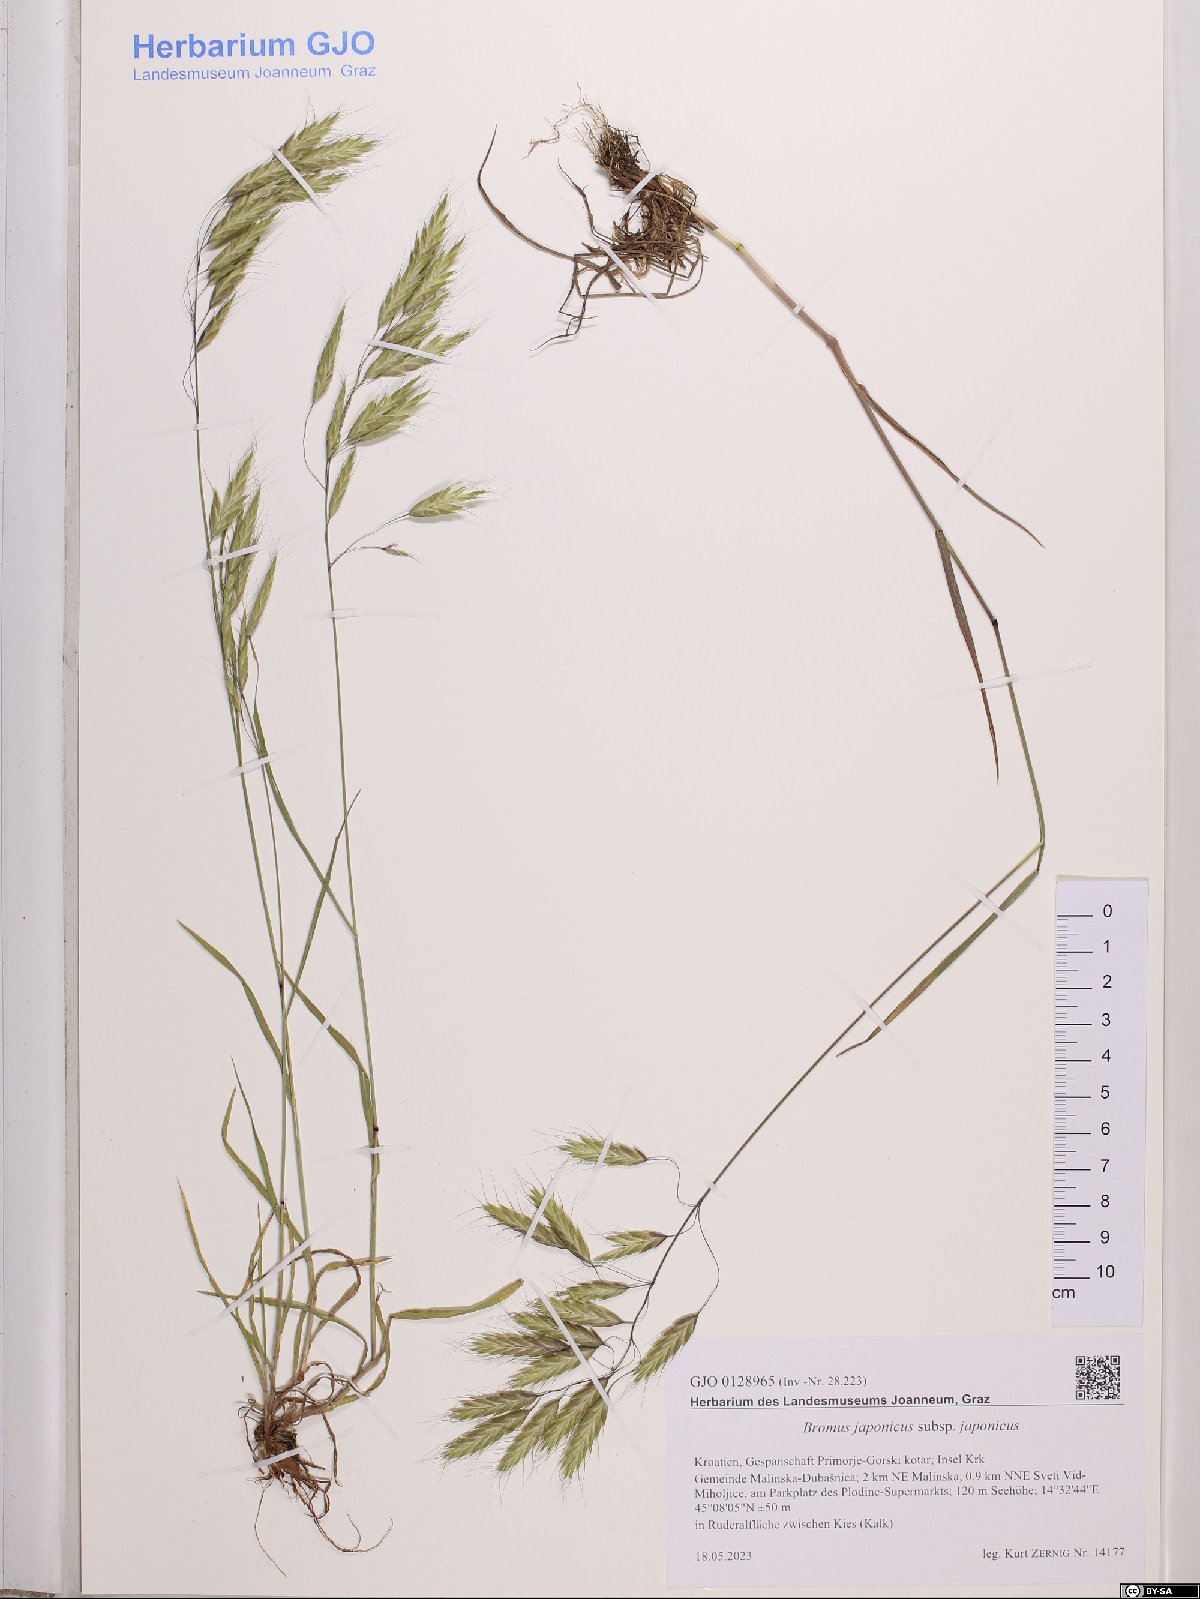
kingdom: Plantae
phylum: Tracheophyta
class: Liliopsida
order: Poales
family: Poaceae
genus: Bromus
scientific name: Bromus japonicus
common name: Japanese brome
